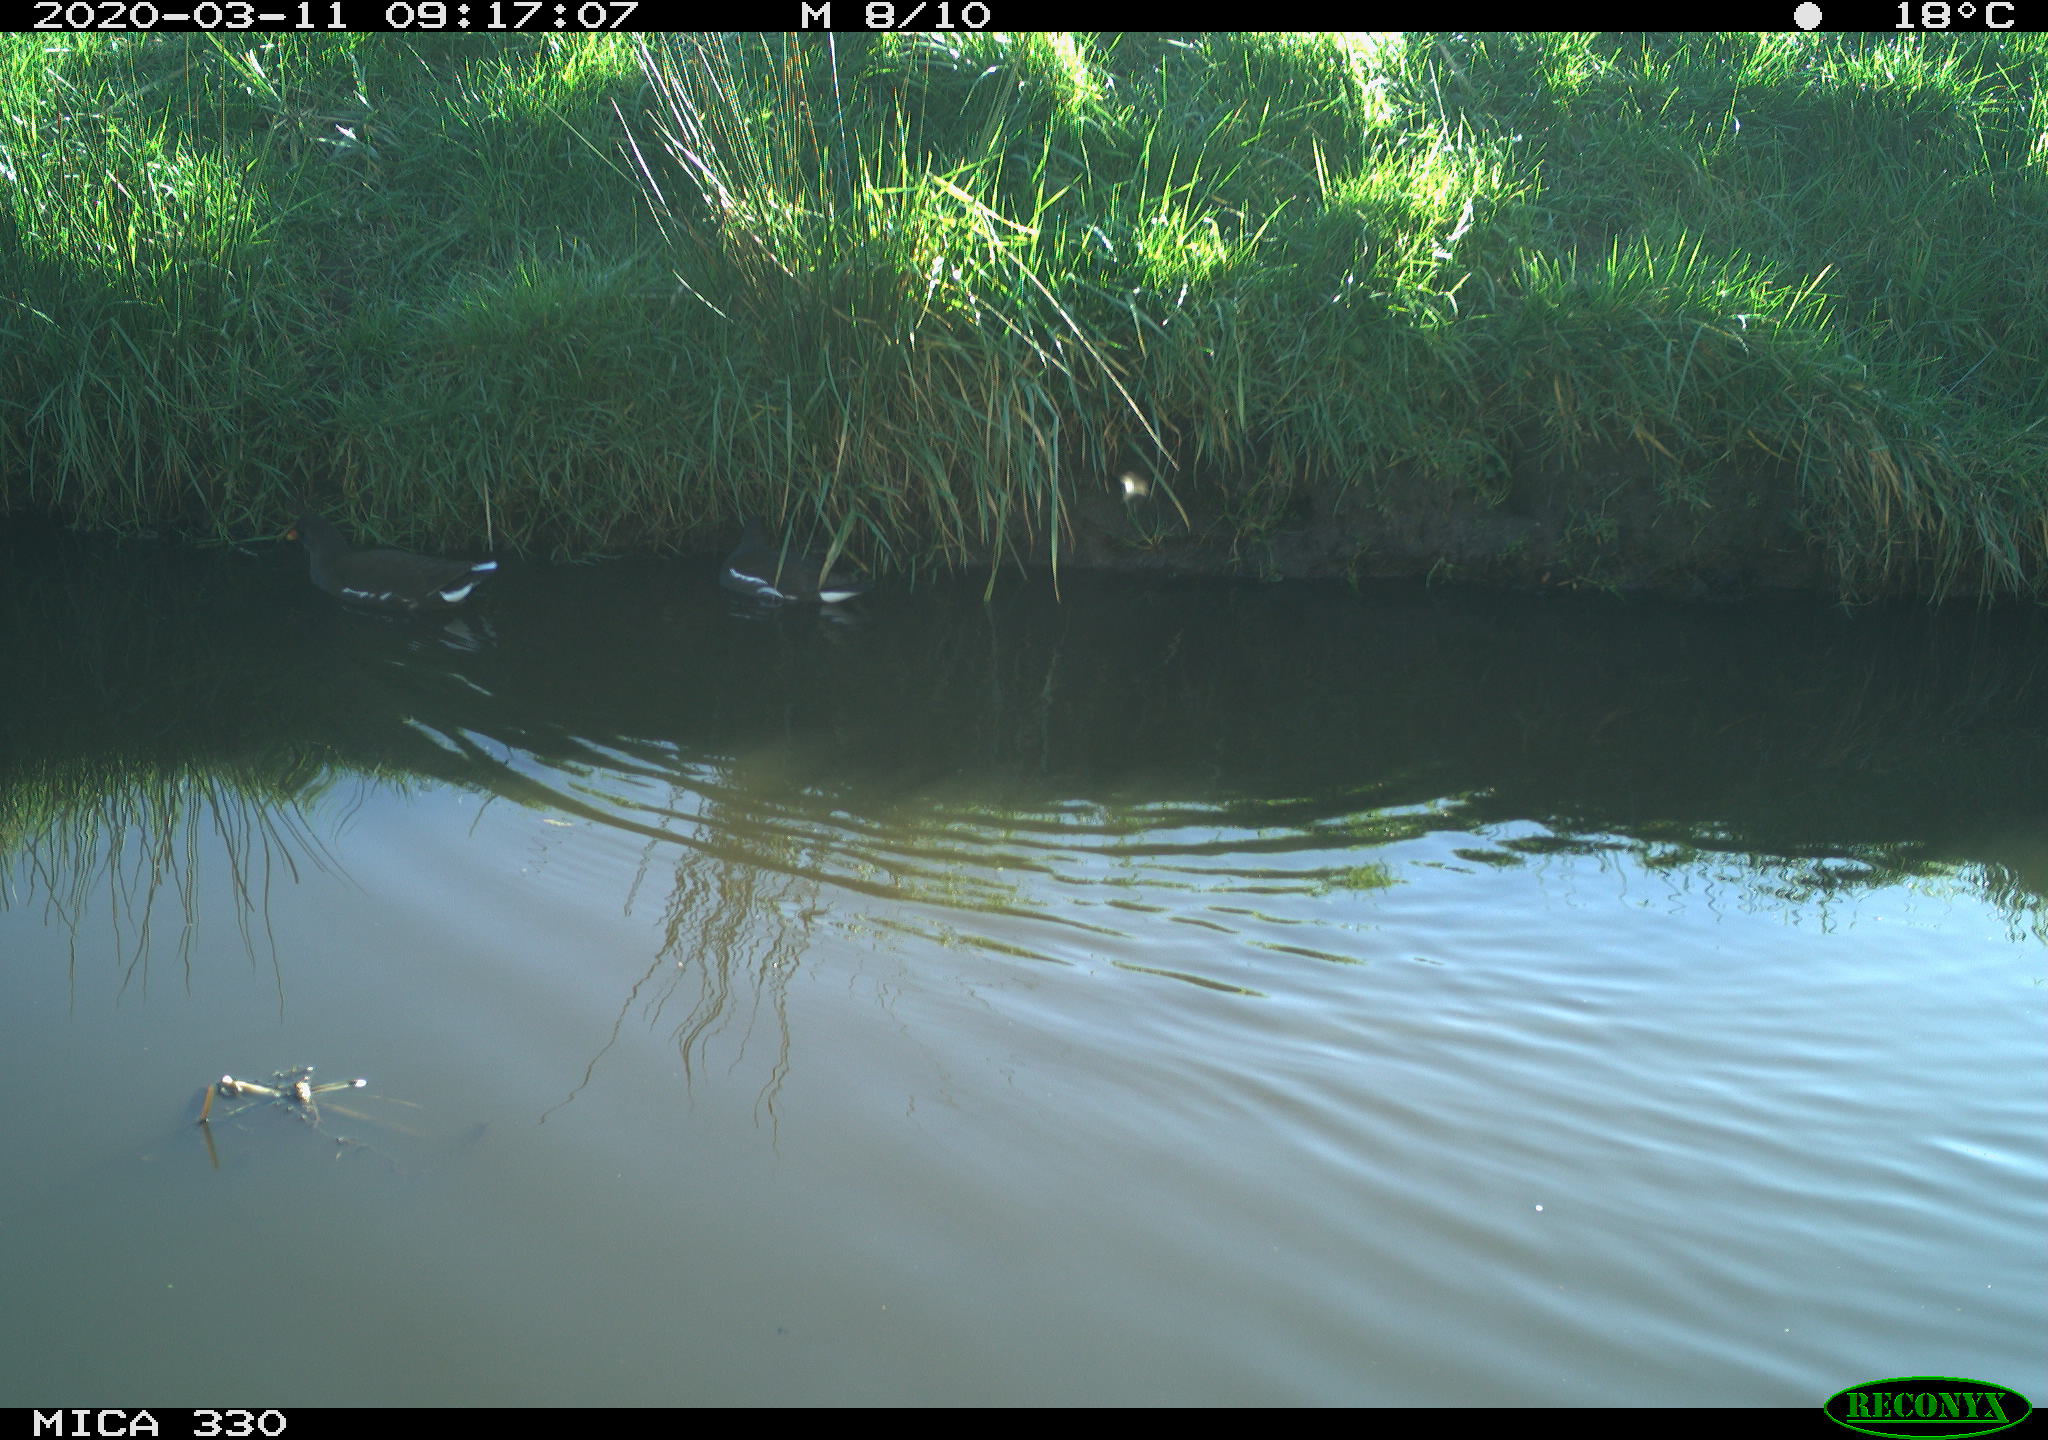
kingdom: Animalia
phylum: Chordata
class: Aves
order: Gruiformes
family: Rallidae
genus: Gallinula
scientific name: Gallinula chloropus
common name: Common moorhen
